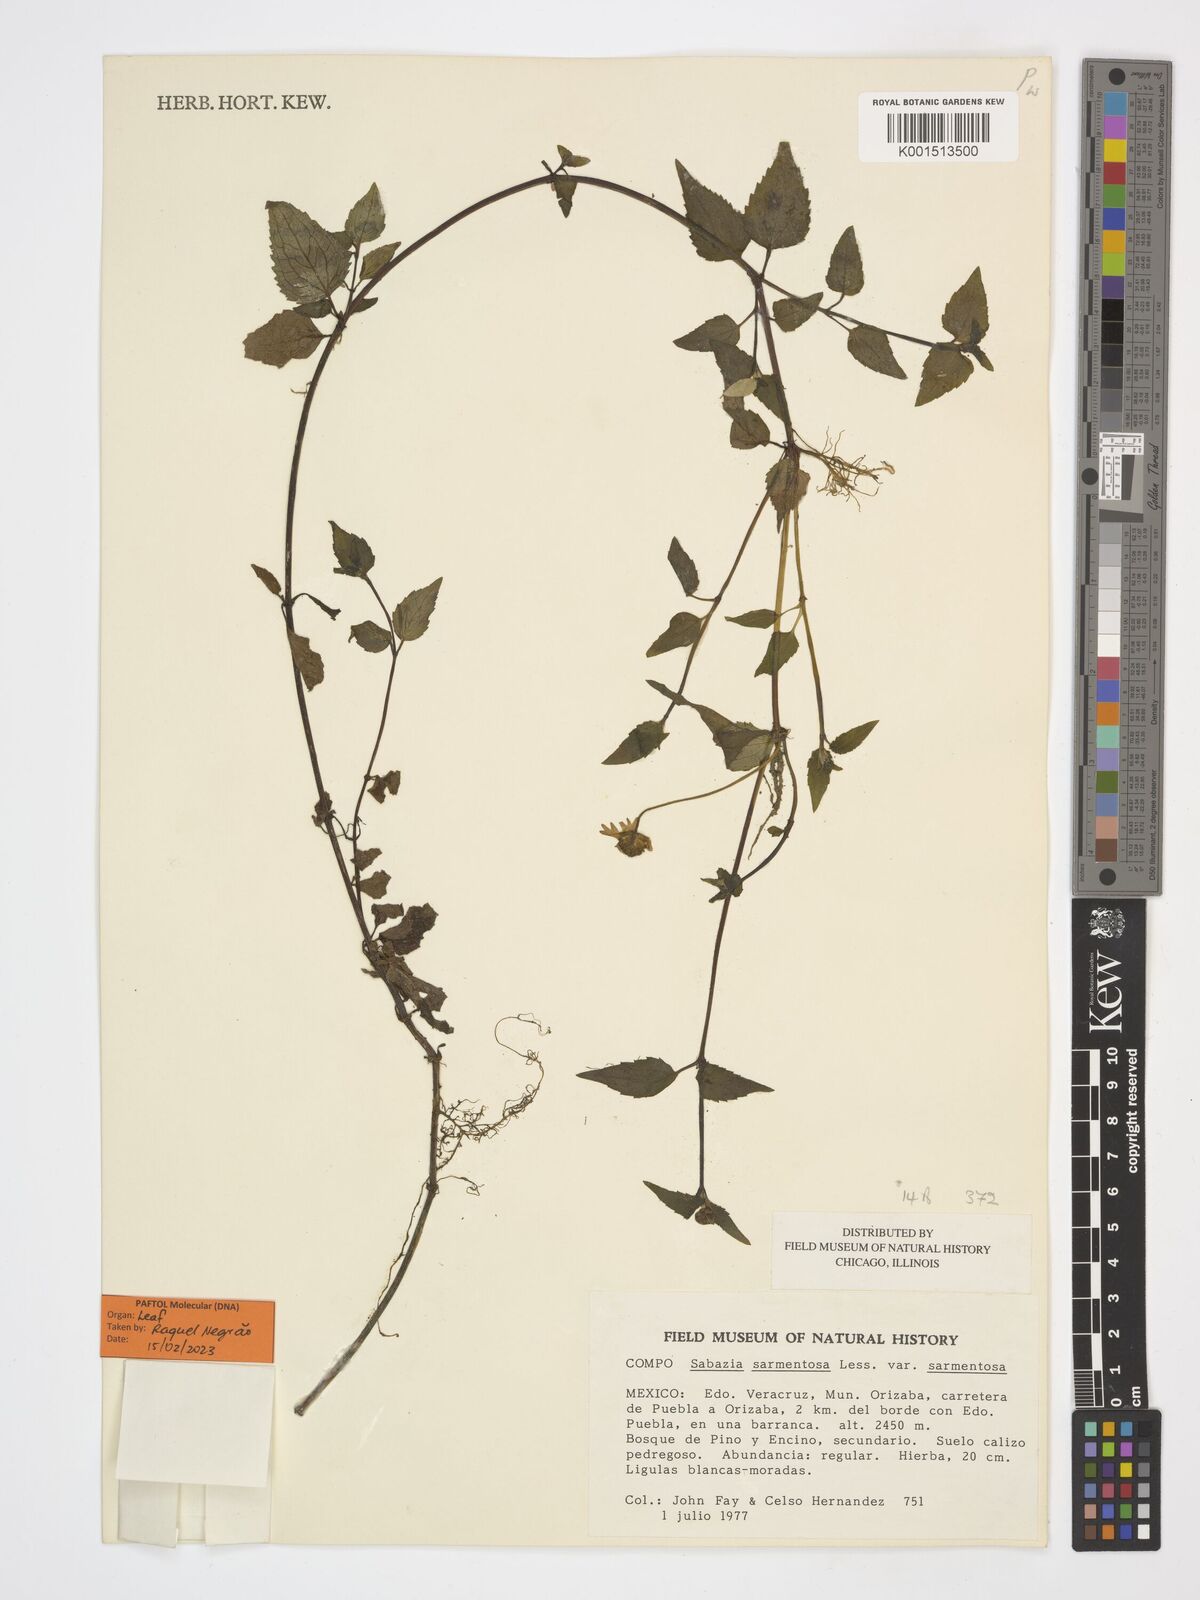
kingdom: Plantae
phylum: Tracheophyta
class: Magnoliopsida
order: Asterales
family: Asteraceae
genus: Sabazia
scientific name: Sabazia sarmentosa
